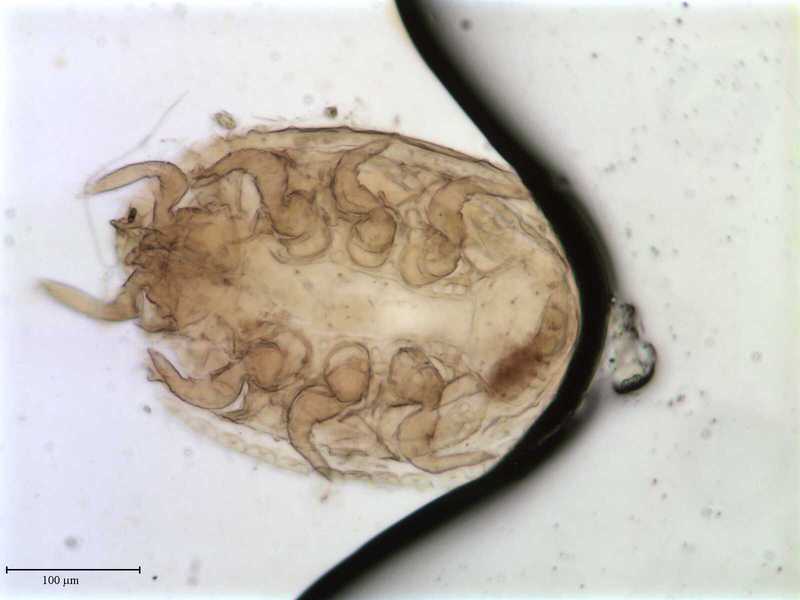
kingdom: Animalia
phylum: Arthropoda
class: Arachnida
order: Mesostigmata
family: Trematuridae
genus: Trichouropoda
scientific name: Trichouropoda
